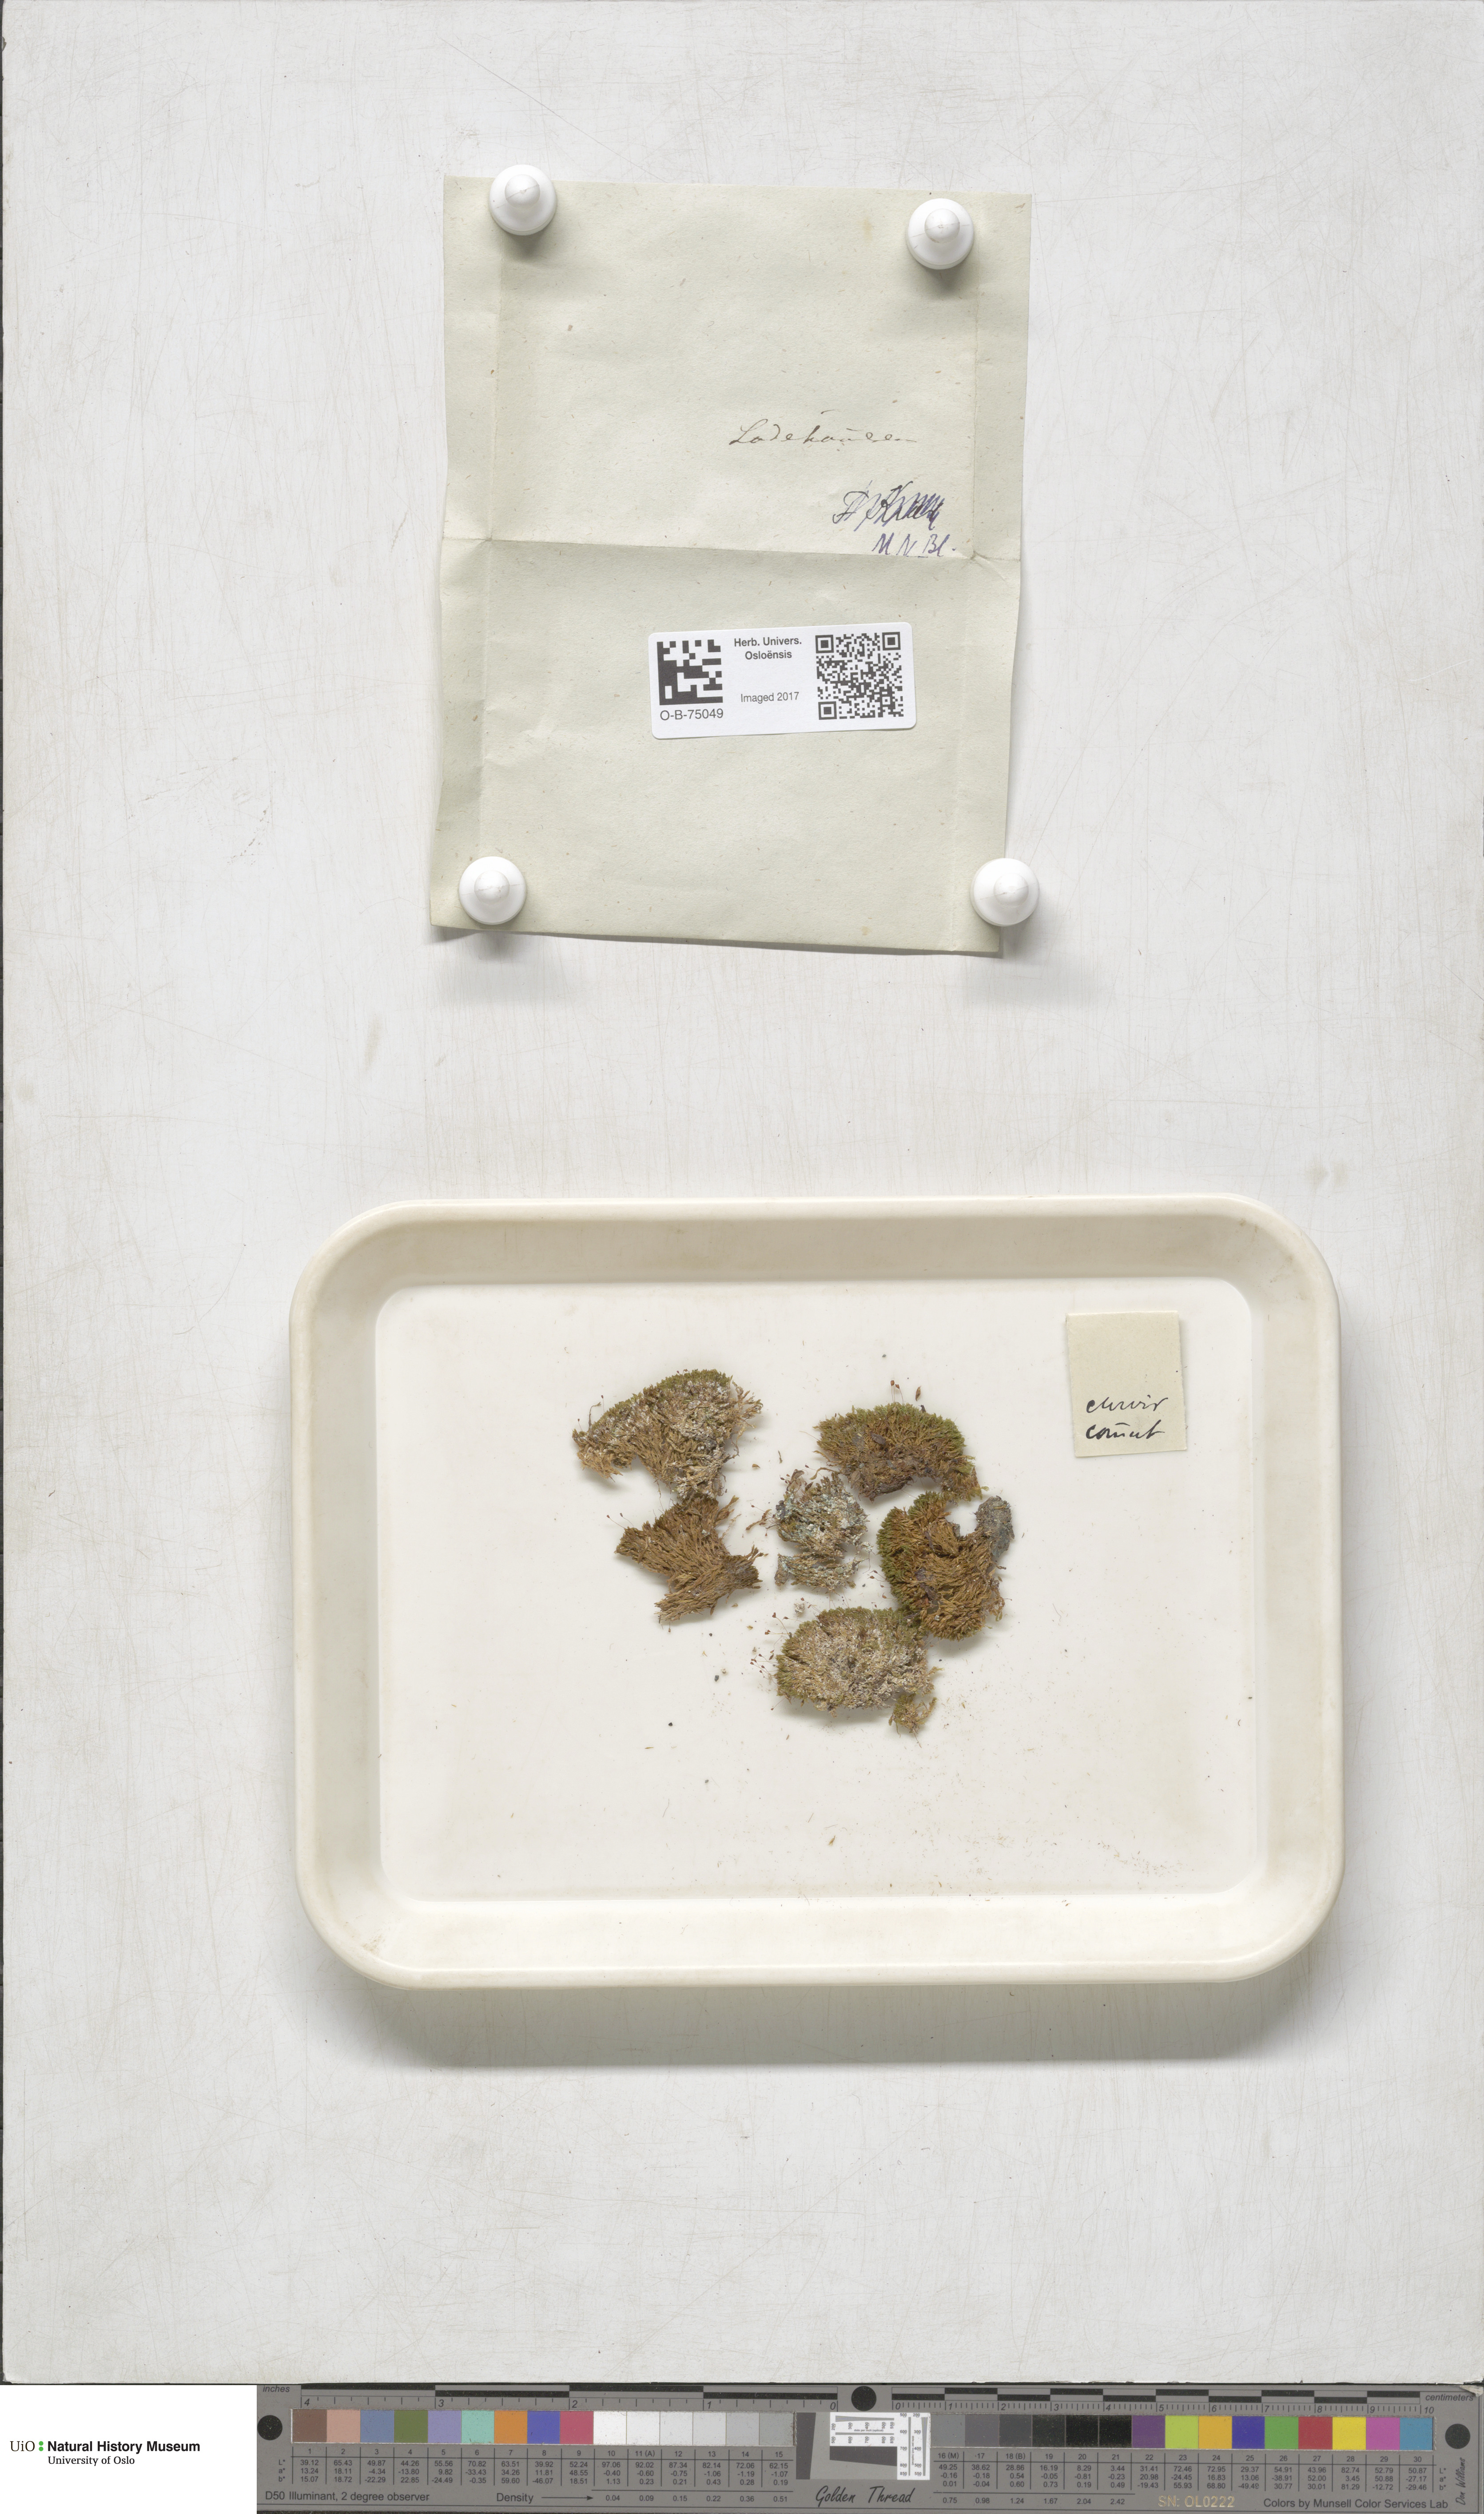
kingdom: Plantae
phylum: Bryophyta
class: Bryopsida
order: Pottiales
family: Pottiaceae
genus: Hymenostylium
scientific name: Hymenostylium recurvirostrum
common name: Hook-beak tufa-moss
